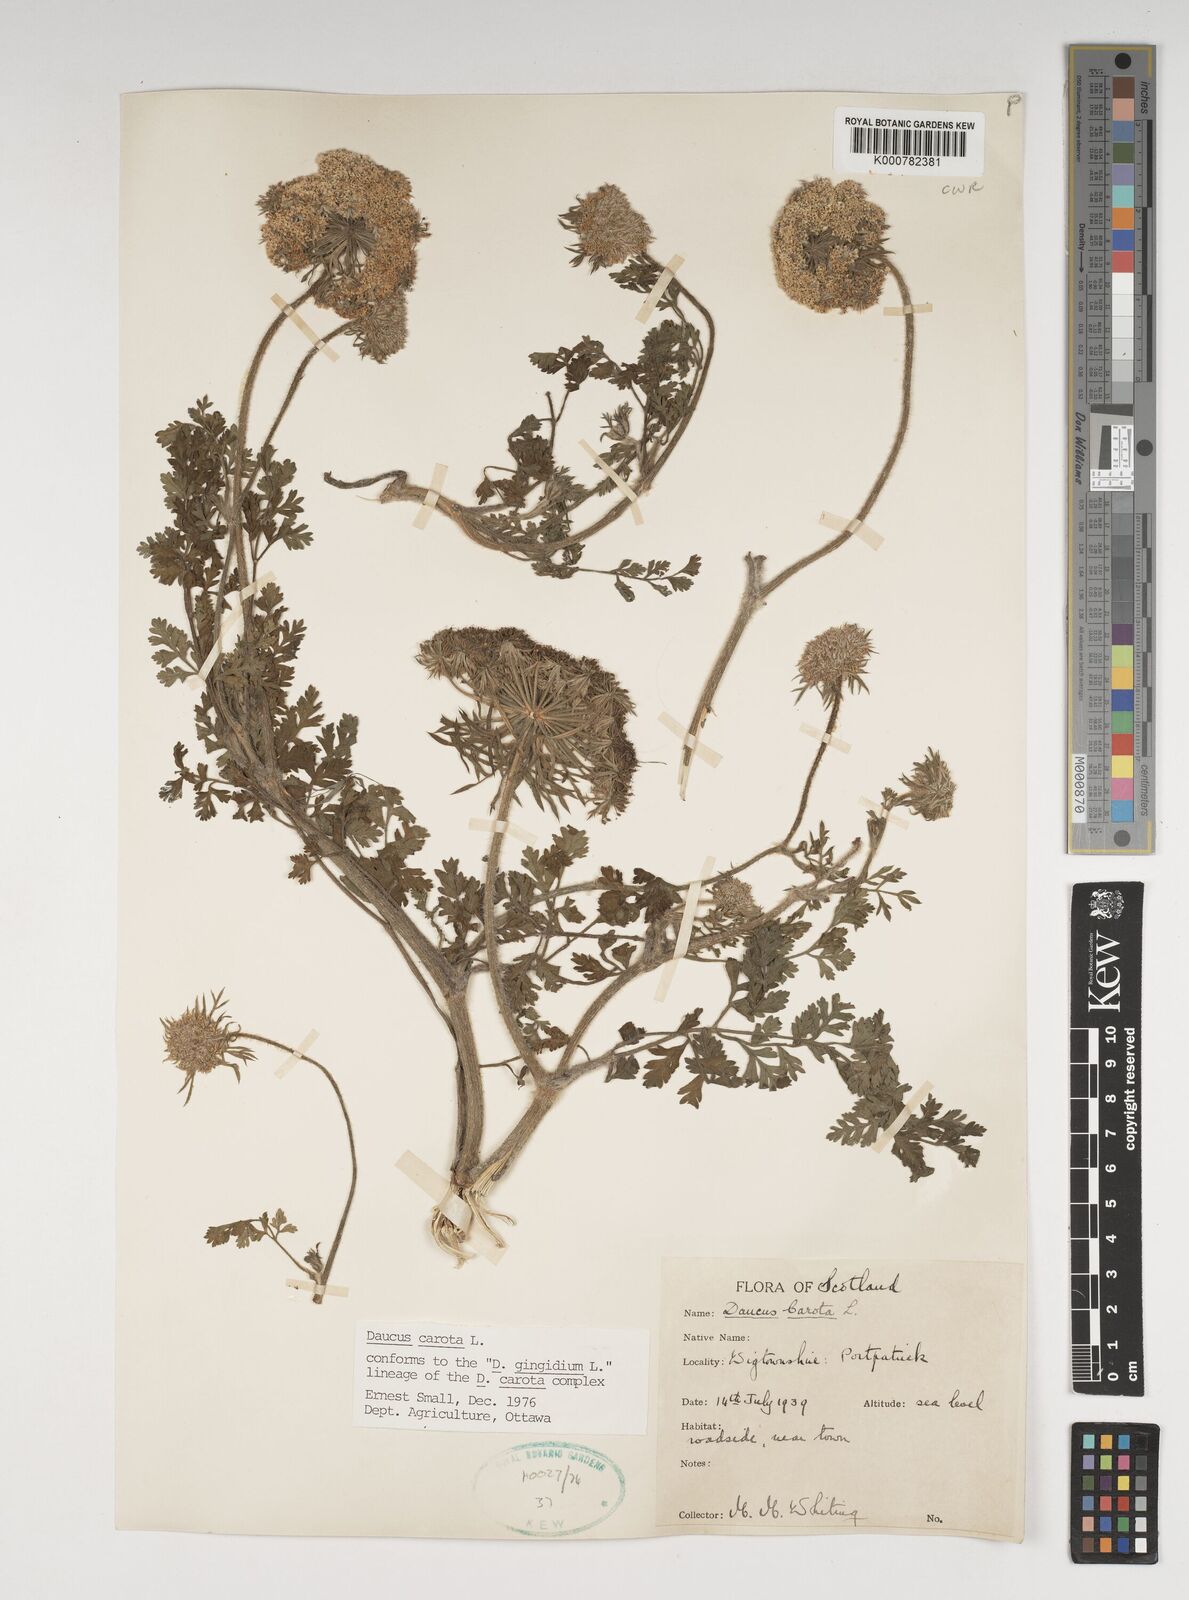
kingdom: Plantae
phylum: Tracheophyta
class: Magnoliopsida
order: Apiales
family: Apiaceae
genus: Daucus
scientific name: Daucus carota
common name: Wild carrot
